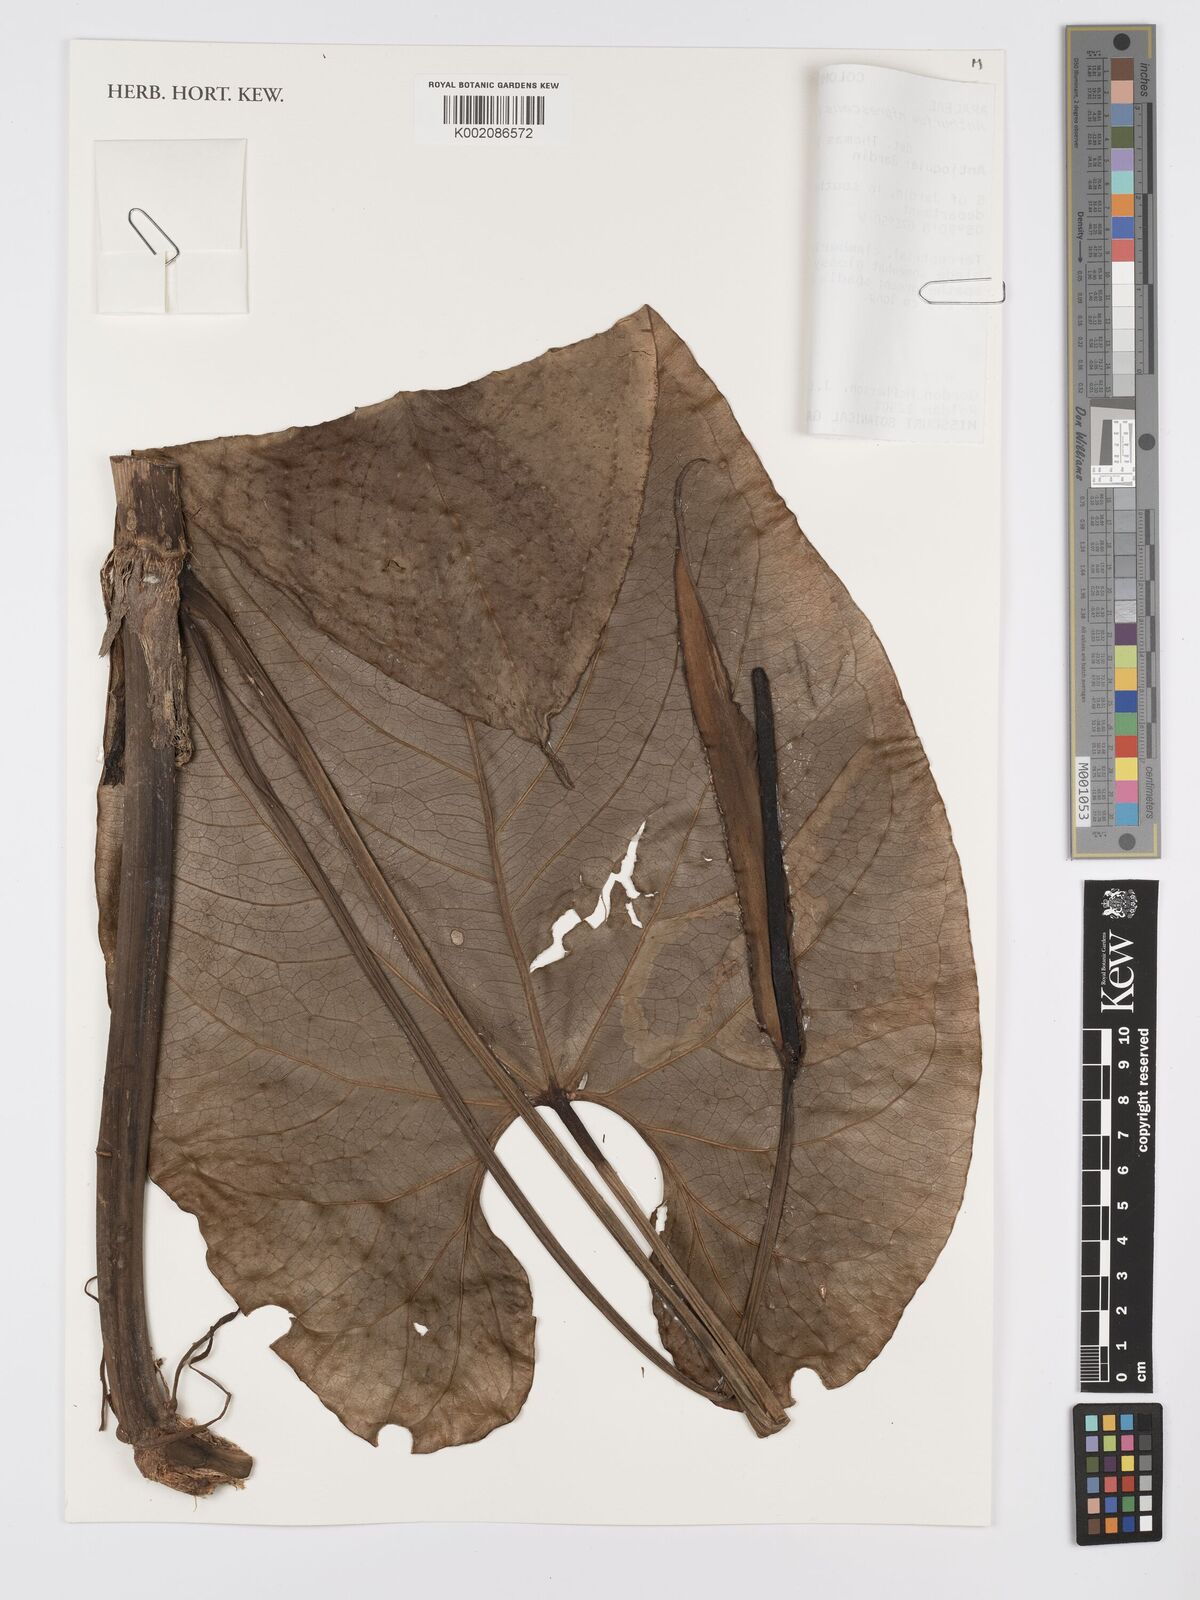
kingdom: Plantae
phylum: Tracheophyta
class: Liliopsida
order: Alismatales
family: Araceae
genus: Anthurium
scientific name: Anthurium nigrescens
